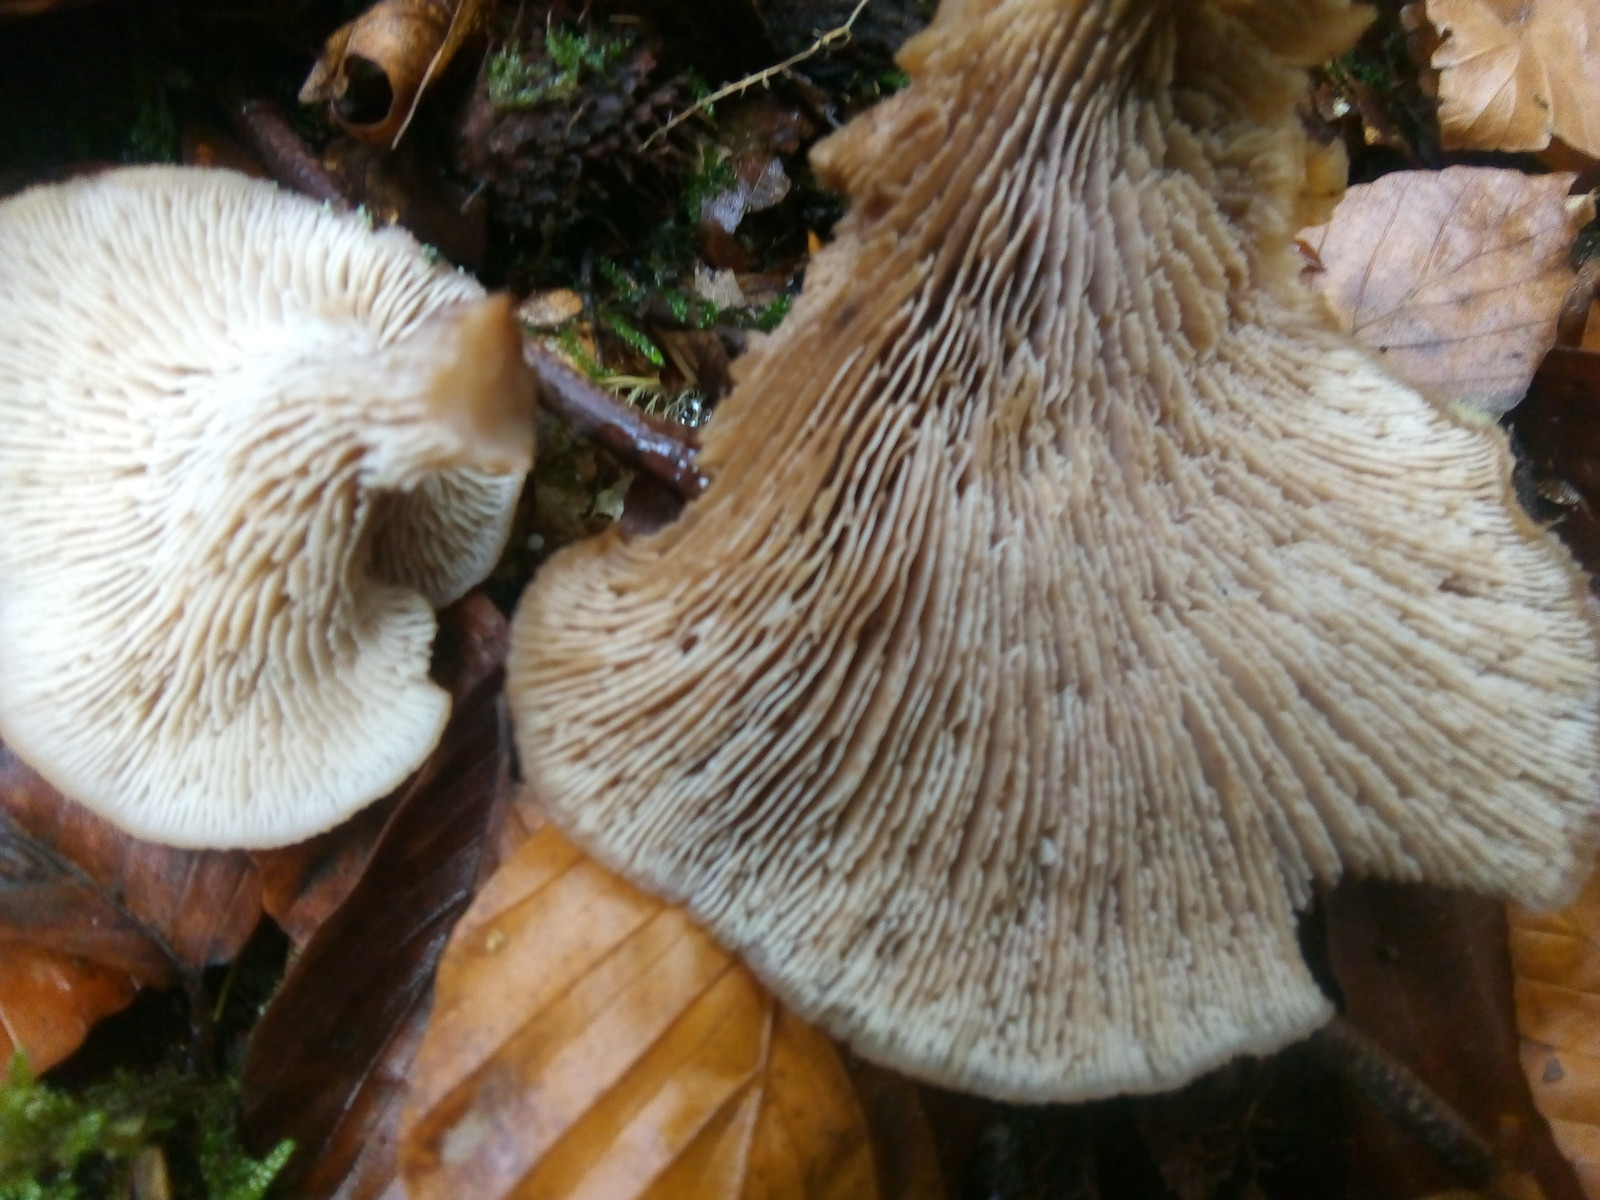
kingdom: Fungi
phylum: Basidiomycota
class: Agaricomycetes
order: Russulales
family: Auriscalpiaceae
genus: Lentinellus
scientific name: Lentinellus
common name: savbladhat
